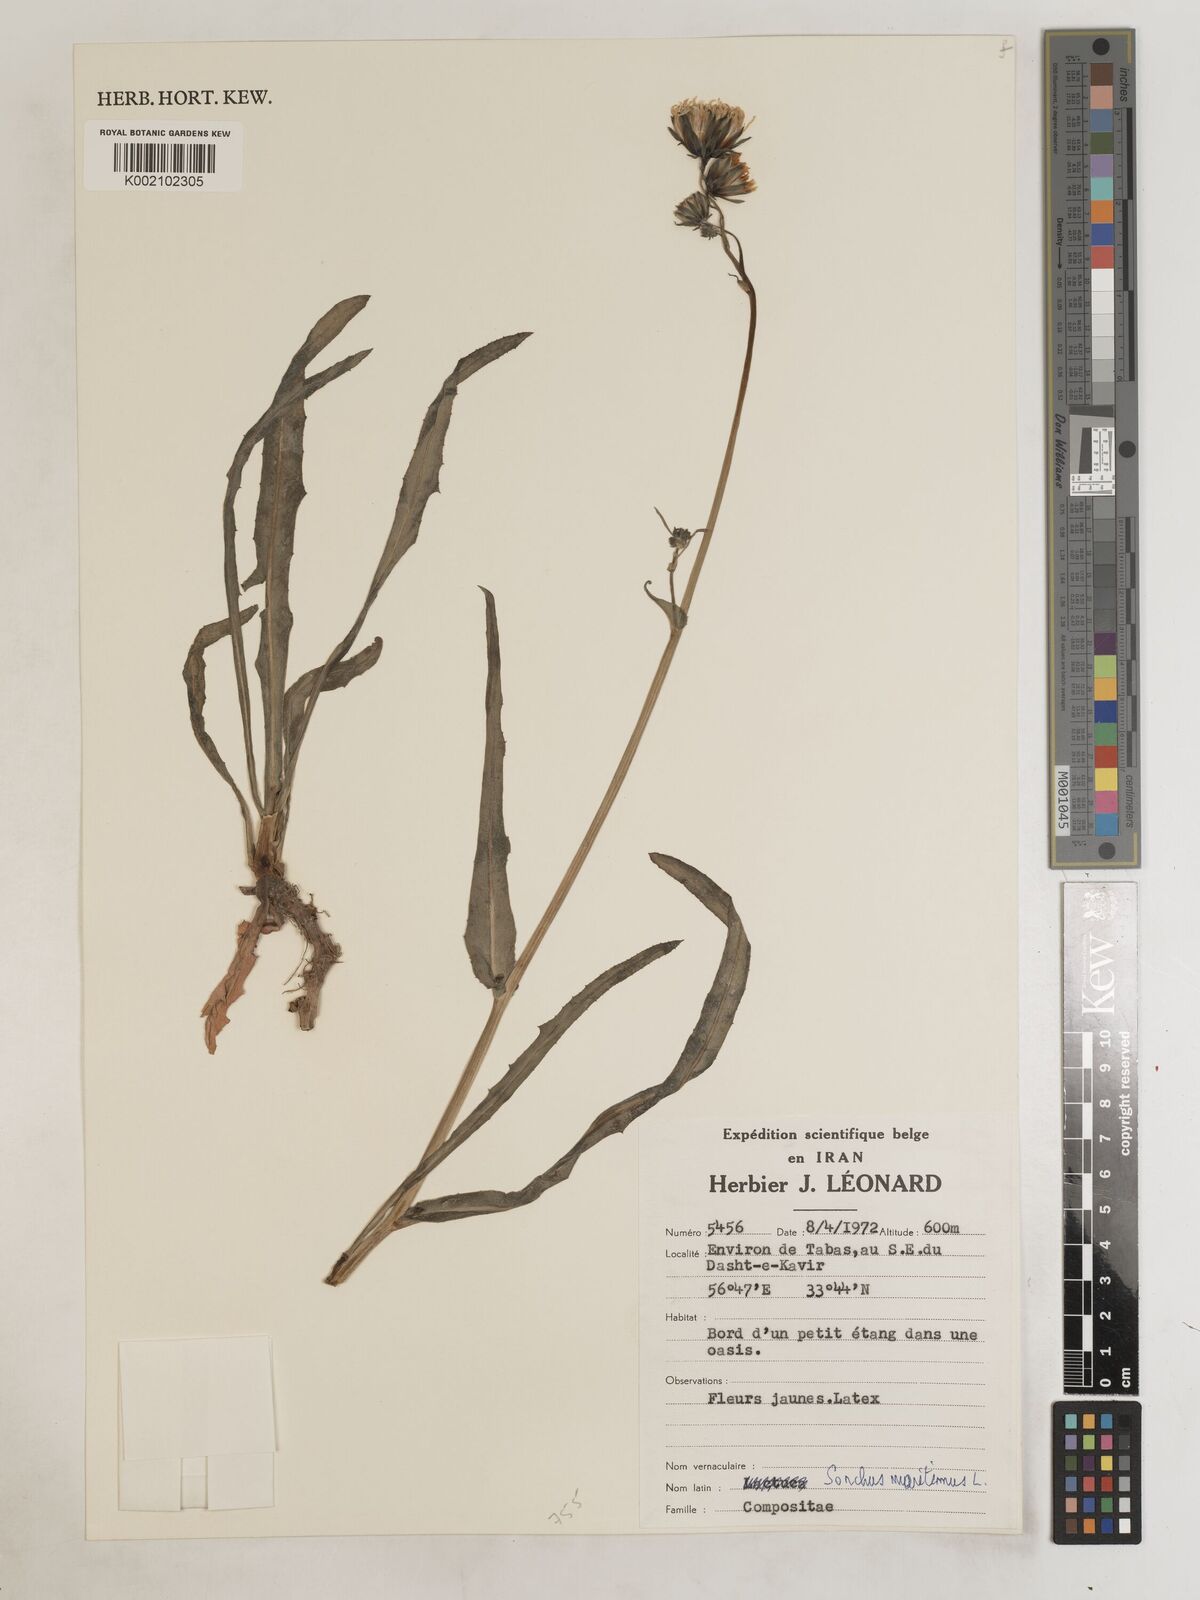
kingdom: Plantae
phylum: Tracheophyta
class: Magnoliopsida
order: Asterales
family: Asteraceae
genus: Sonchus
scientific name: Sonchus maritimus
